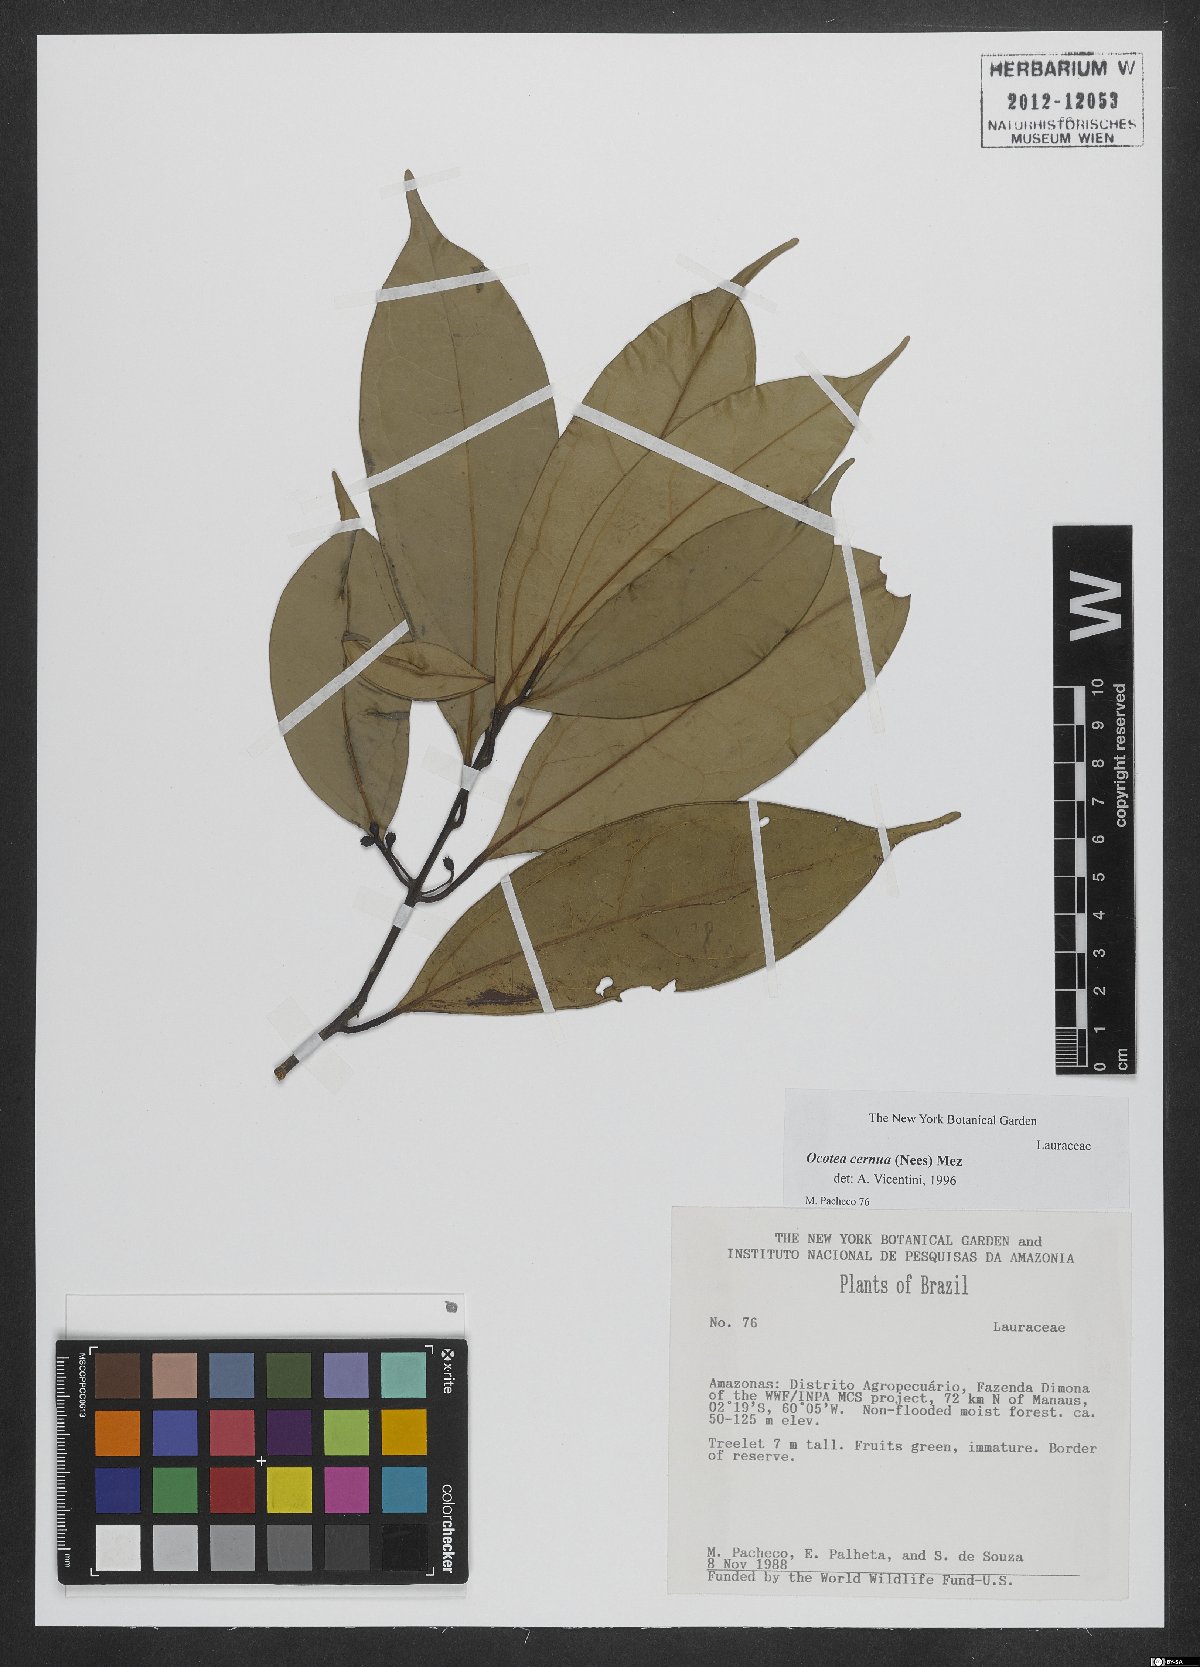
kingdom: Plantae
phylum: Tracheophyta
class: Magnoliopsida
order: Laurales
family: Lauraceae
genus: Ocotea
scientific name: Ocotea leptobotra
